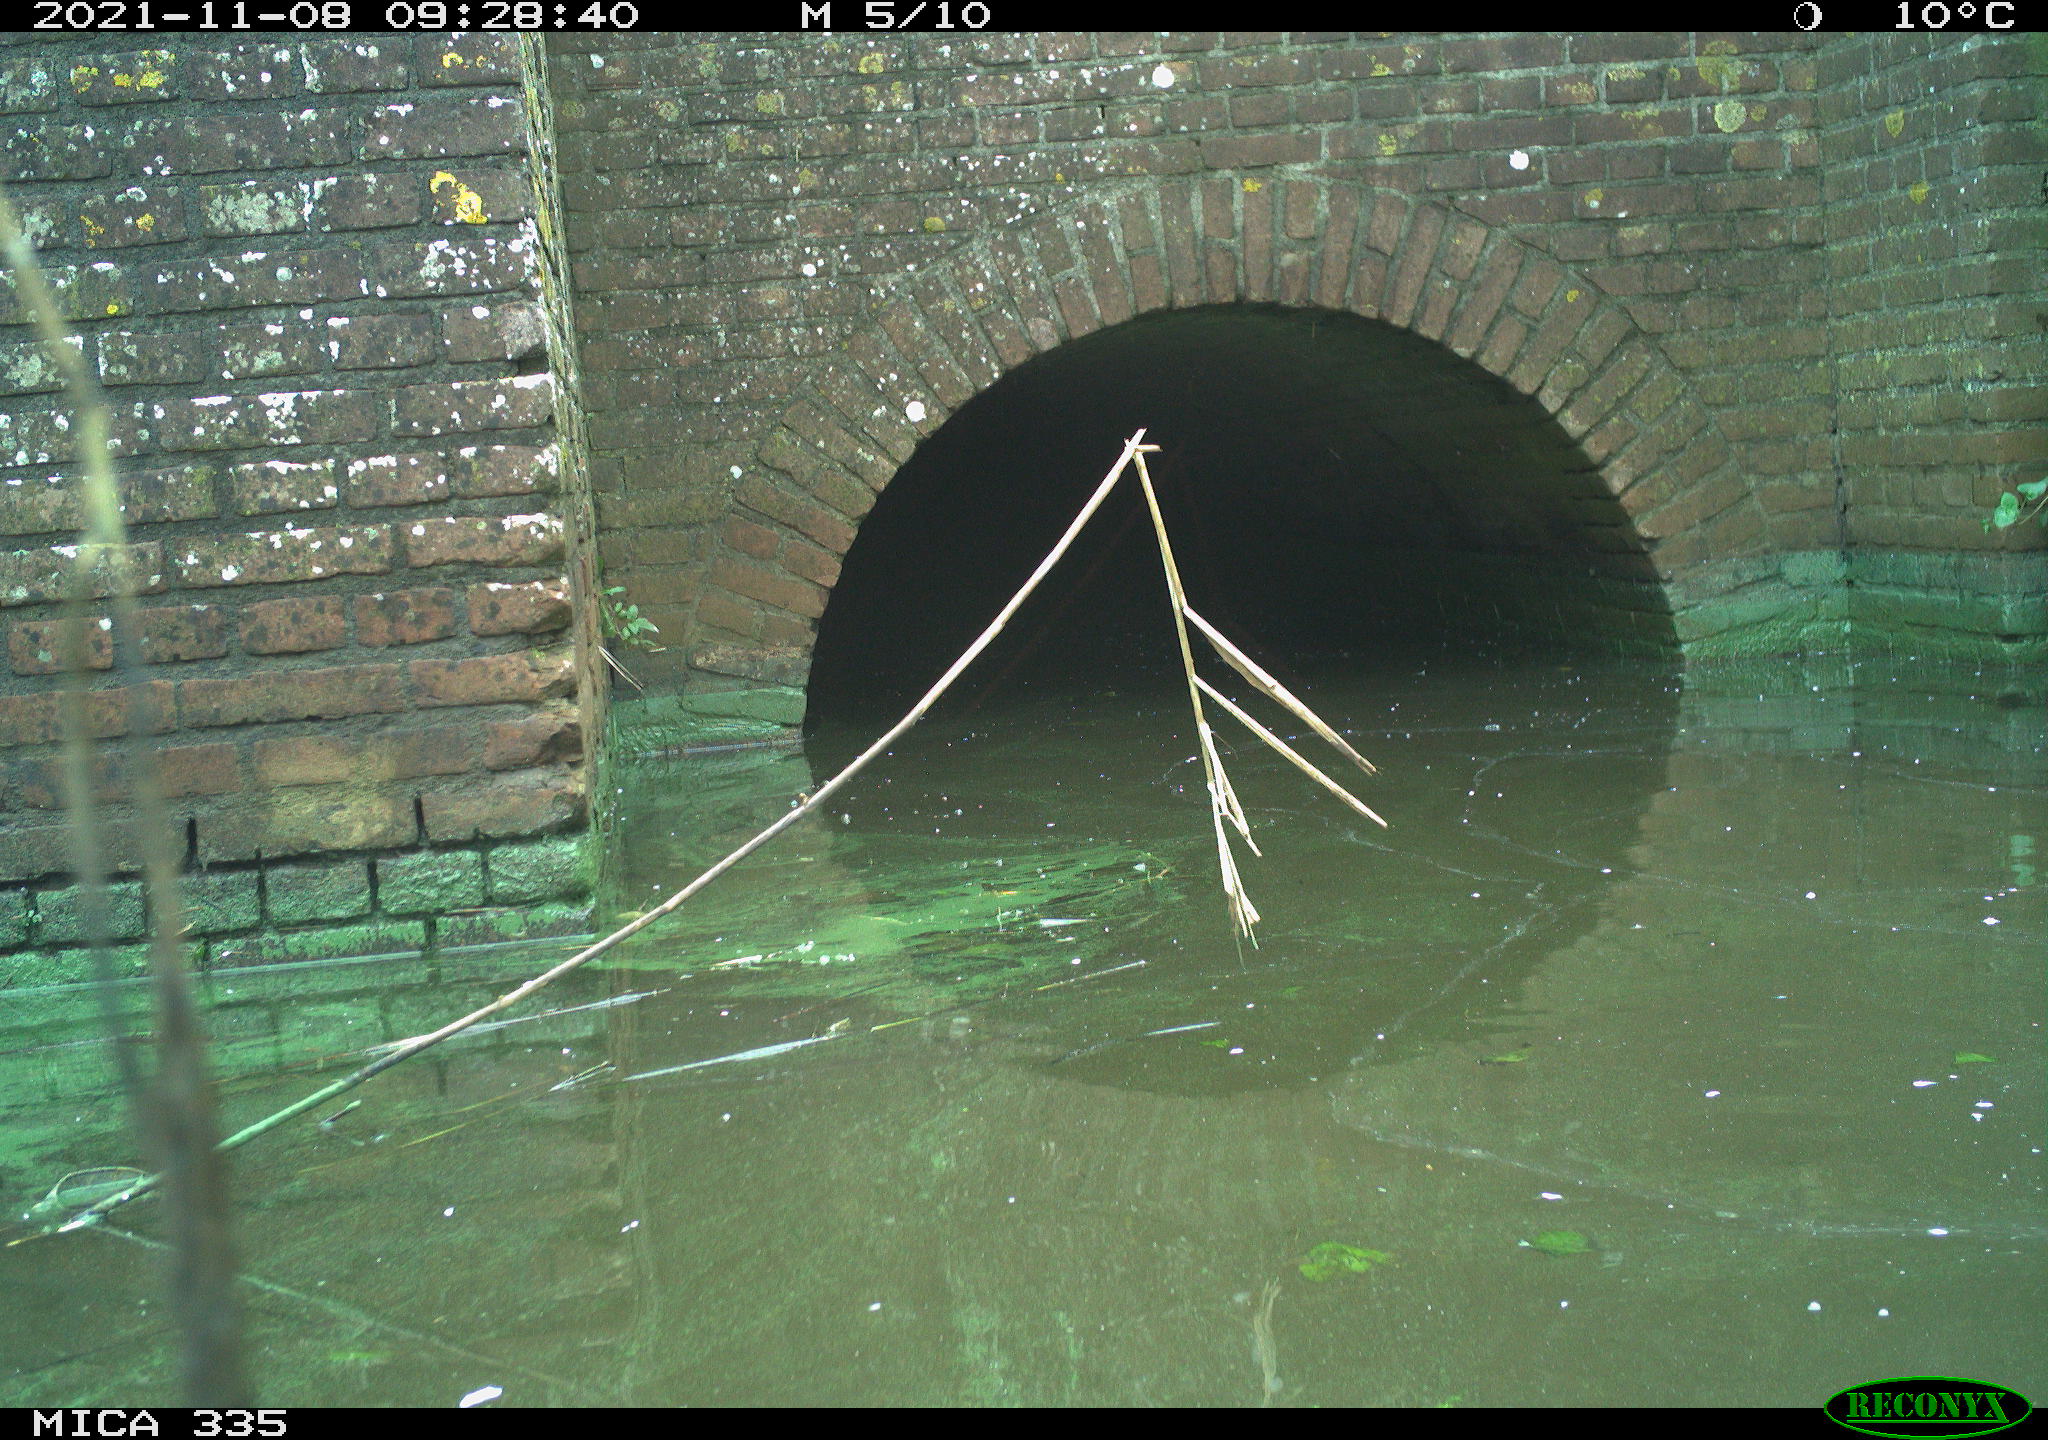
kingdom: Animalia
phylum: Chordata
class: Aves
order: Anseriformes
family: Anatidae
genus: Anas
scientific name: Anas platyrhynchos
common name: Mallard
